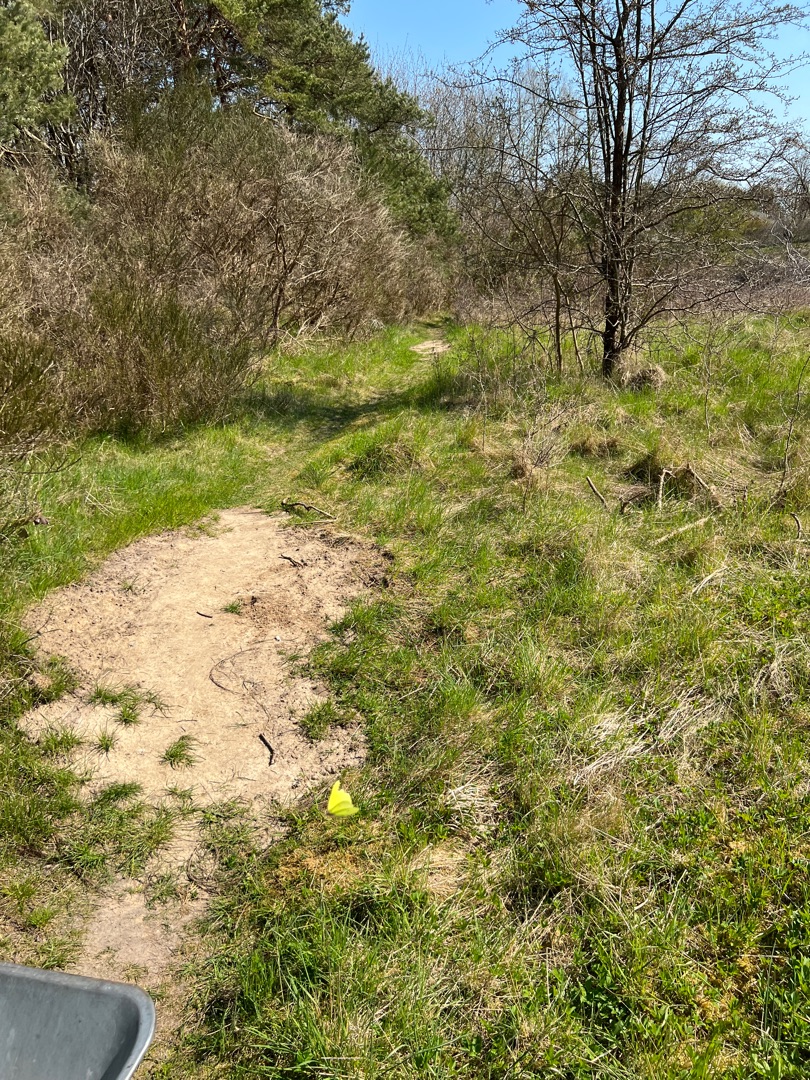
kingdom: Animalia
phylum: Arthropoda
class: Insecta
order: Lepidoptera
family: Pieridae
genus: Gonepteryx
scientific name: Gonepteryx rhamni
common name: Citronsommerfugl
